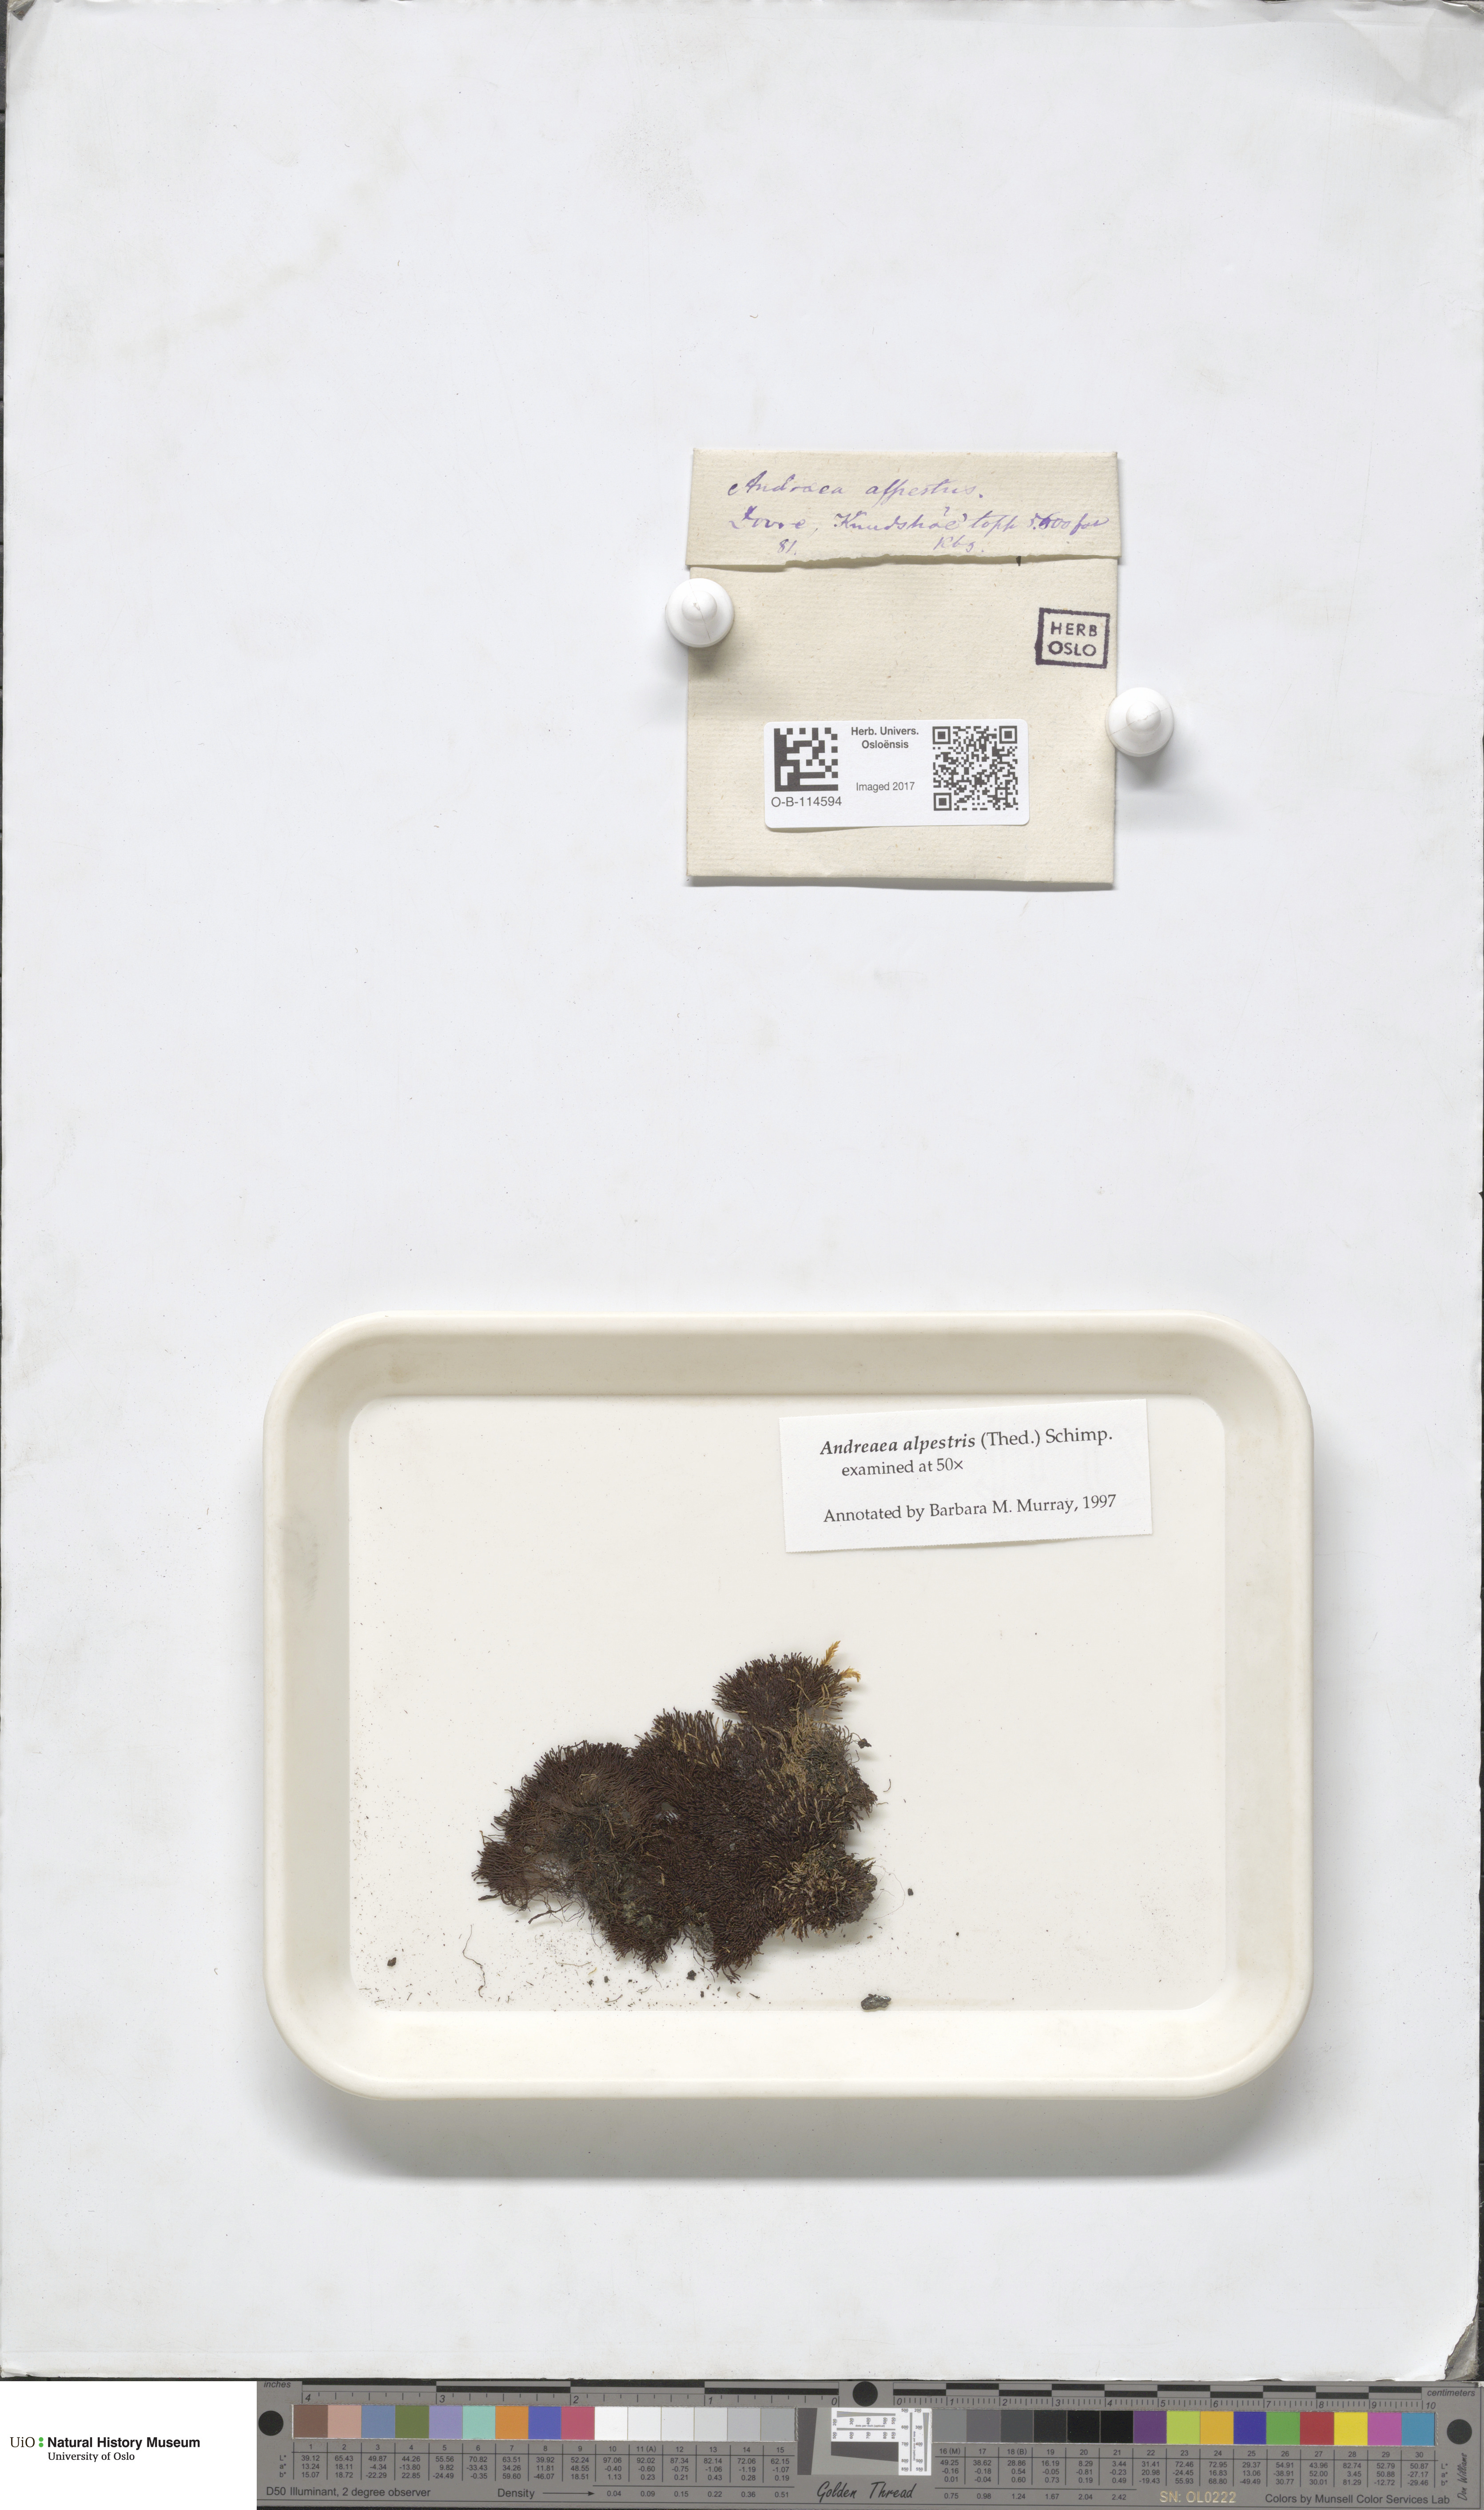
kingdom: Plantae
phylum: Bryophyta
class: Andreaeopsida
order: Andreaeales
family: Andreaeaceae
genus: Andreaea
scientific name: Andreaea alpestris
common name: Slender rock-moss
